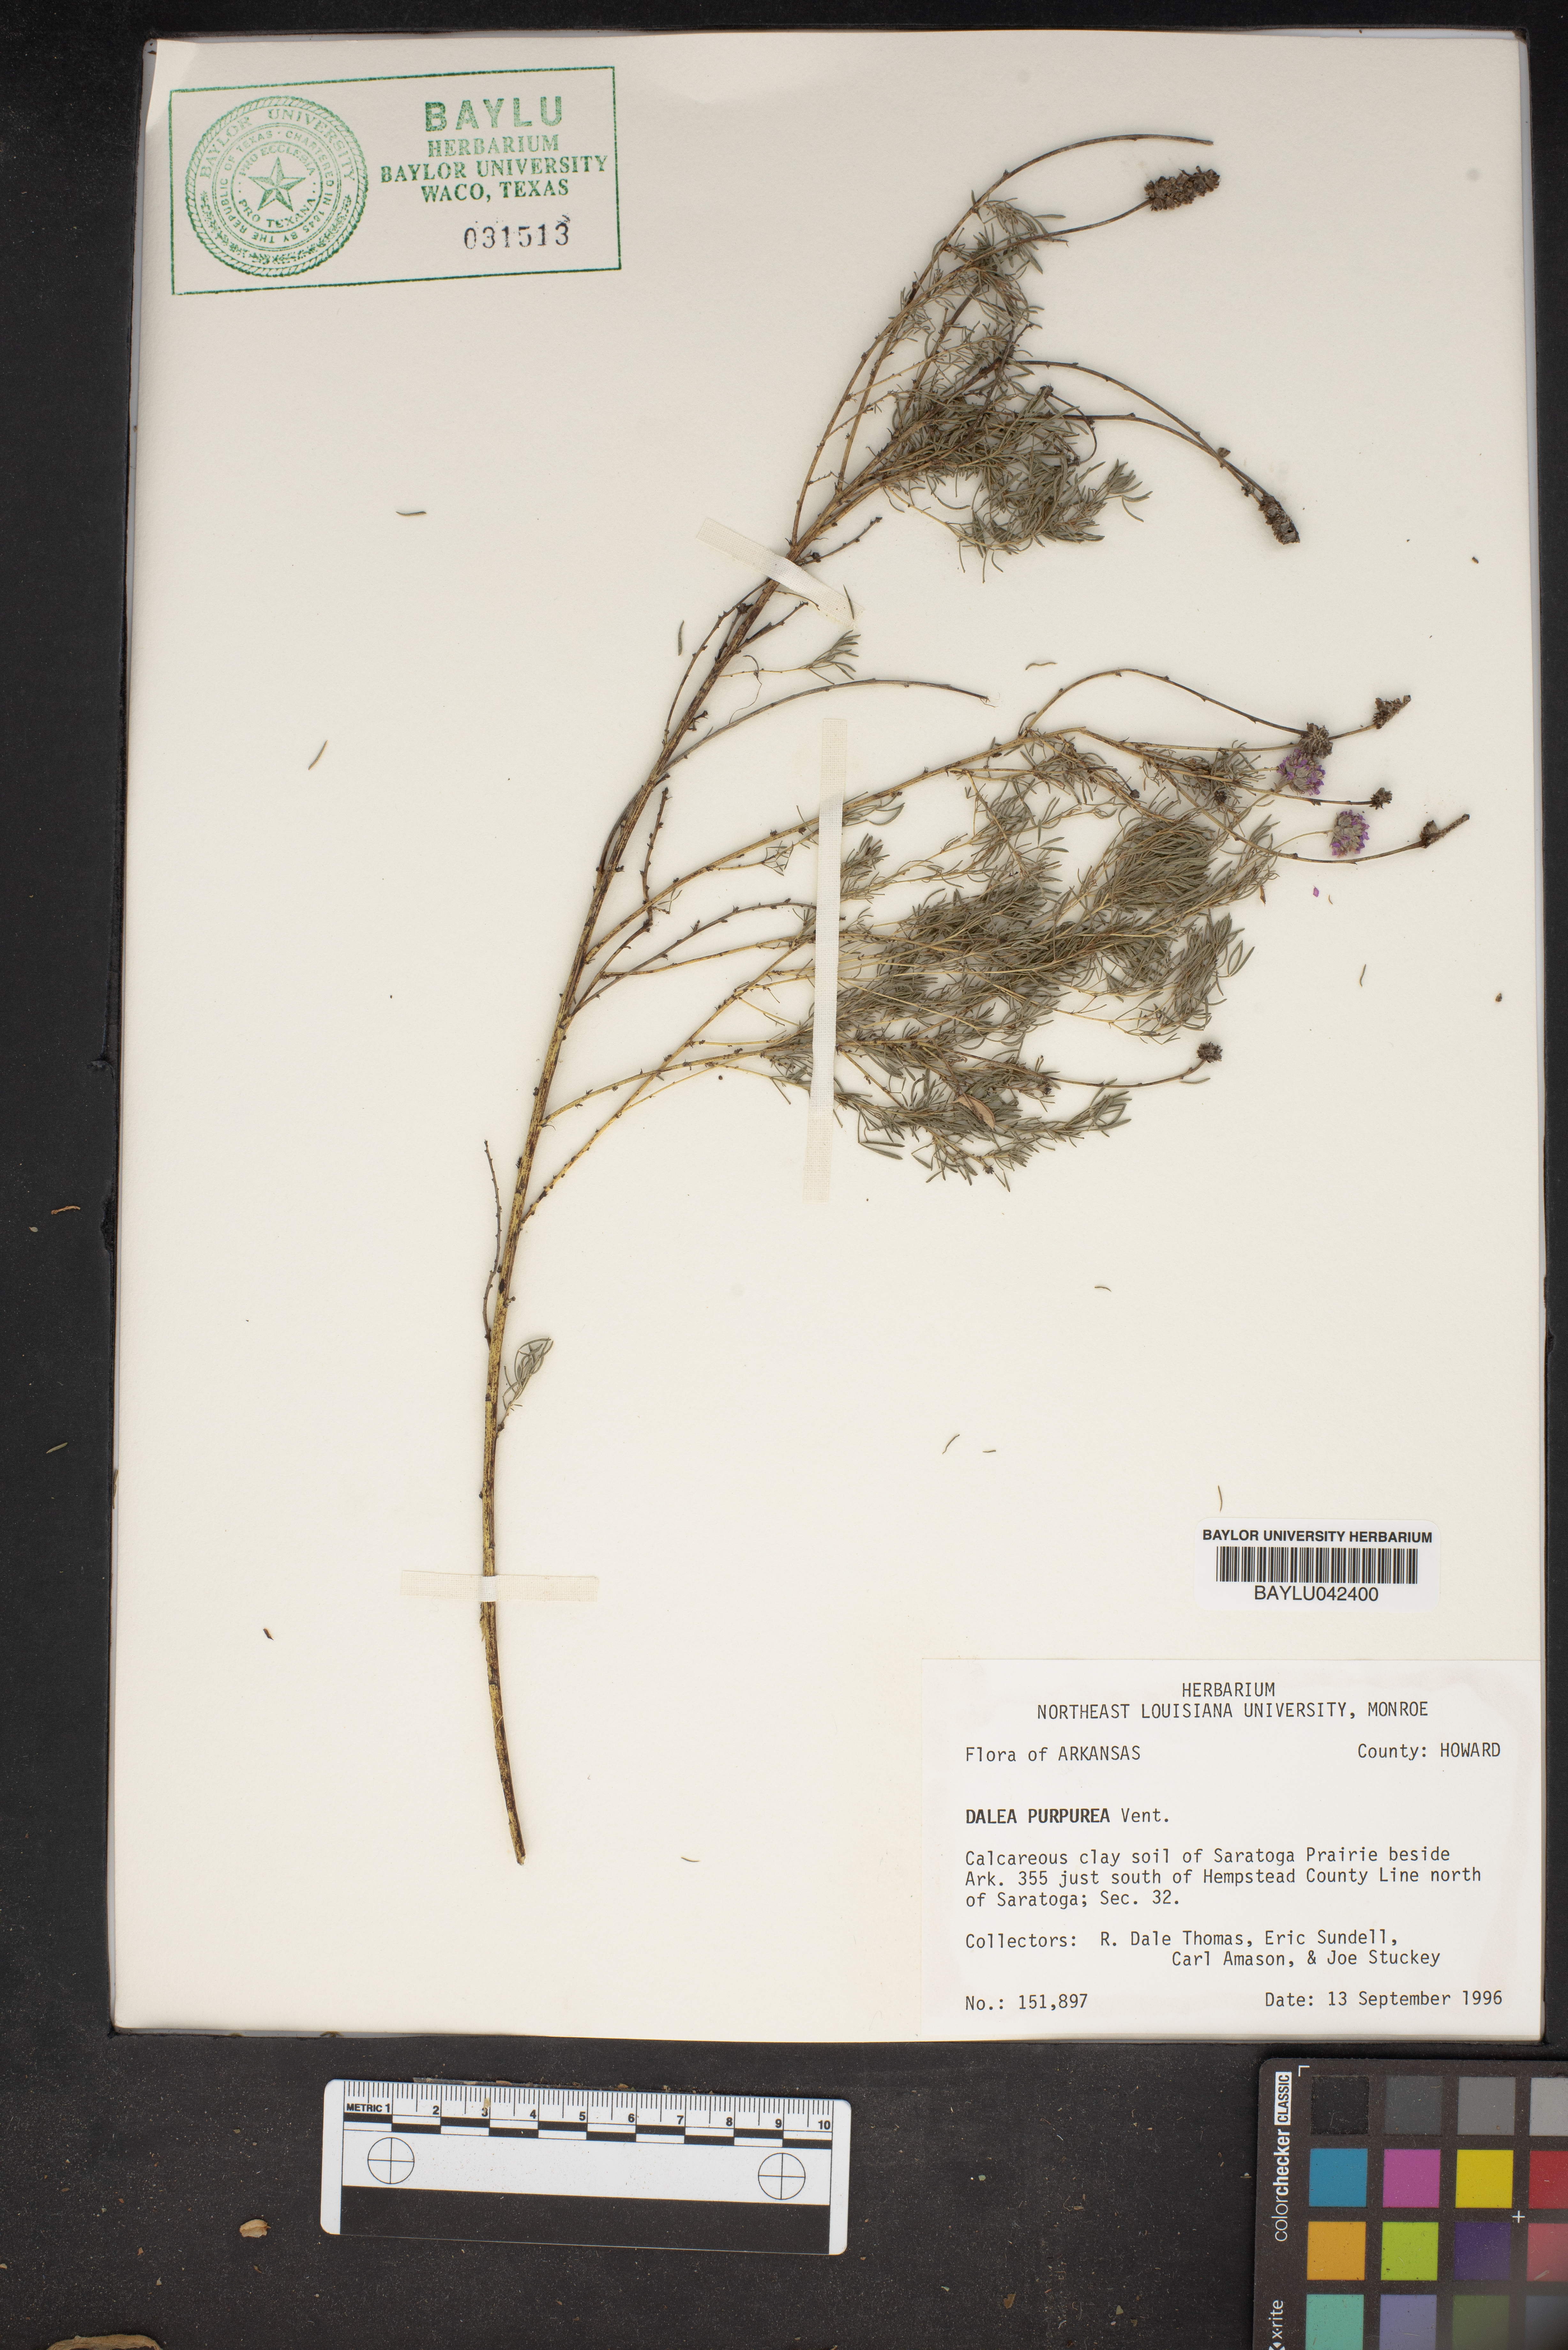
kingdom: Plantae
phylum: Tracheophyta
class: Magnoliopsida
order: Fabales
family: Fabaceae
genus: Dalea
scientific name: Dalea purpurea
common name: Purple prairie-clover
